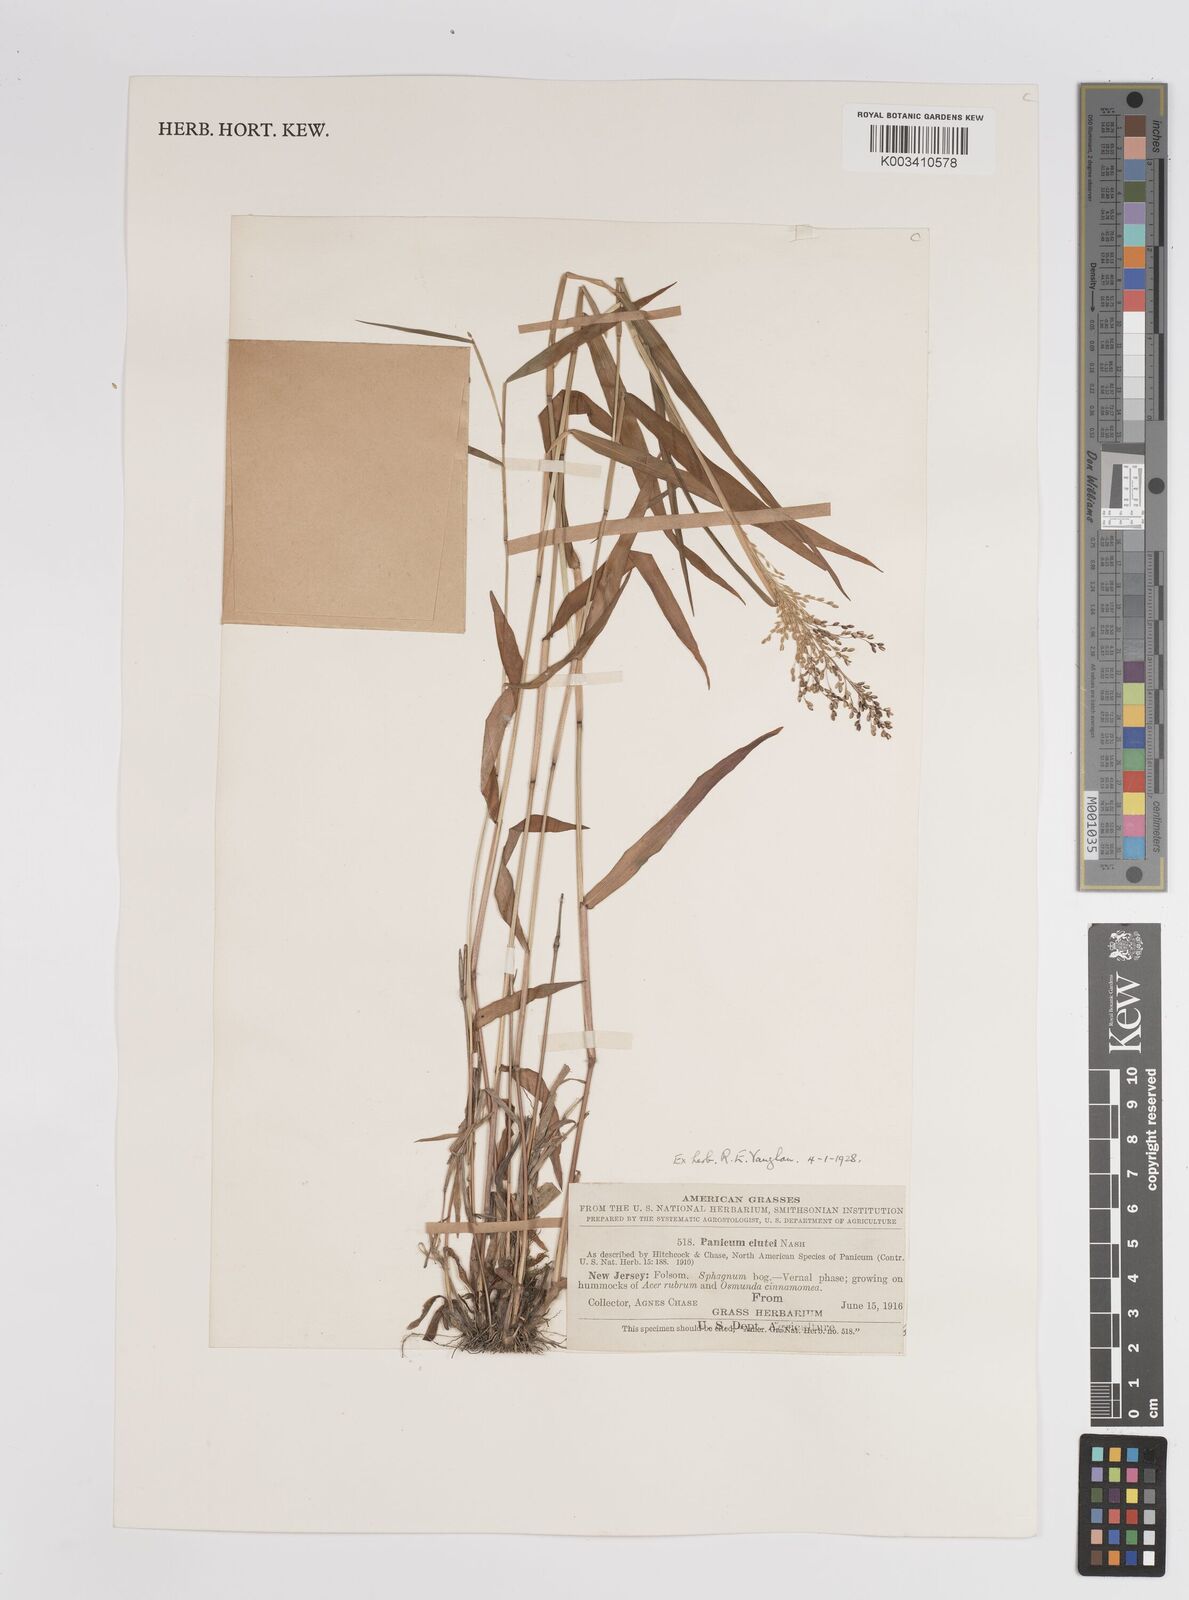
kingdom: Plantae
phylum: Tracheophyta
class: Liliopsida
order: Poales
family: Poaceae
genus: Dichanthelium
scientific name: Dichanthelium mattamuskeetense
